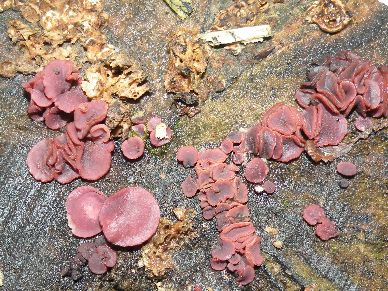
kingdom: Fungi
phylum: Ascomycota
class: Leotiomycetes
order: Helotiales
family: Gelatinodiscaceae
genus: Ascocoryne
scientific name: Ascocoryne cylichnium
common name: stor sejskive
